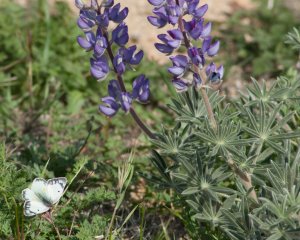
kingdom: Animalia
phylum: Arthropoda
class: Insecta
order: Lepidoptera
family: Pieridae
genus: Colias
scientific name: Colias philodice
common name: Clouded Sulphur
